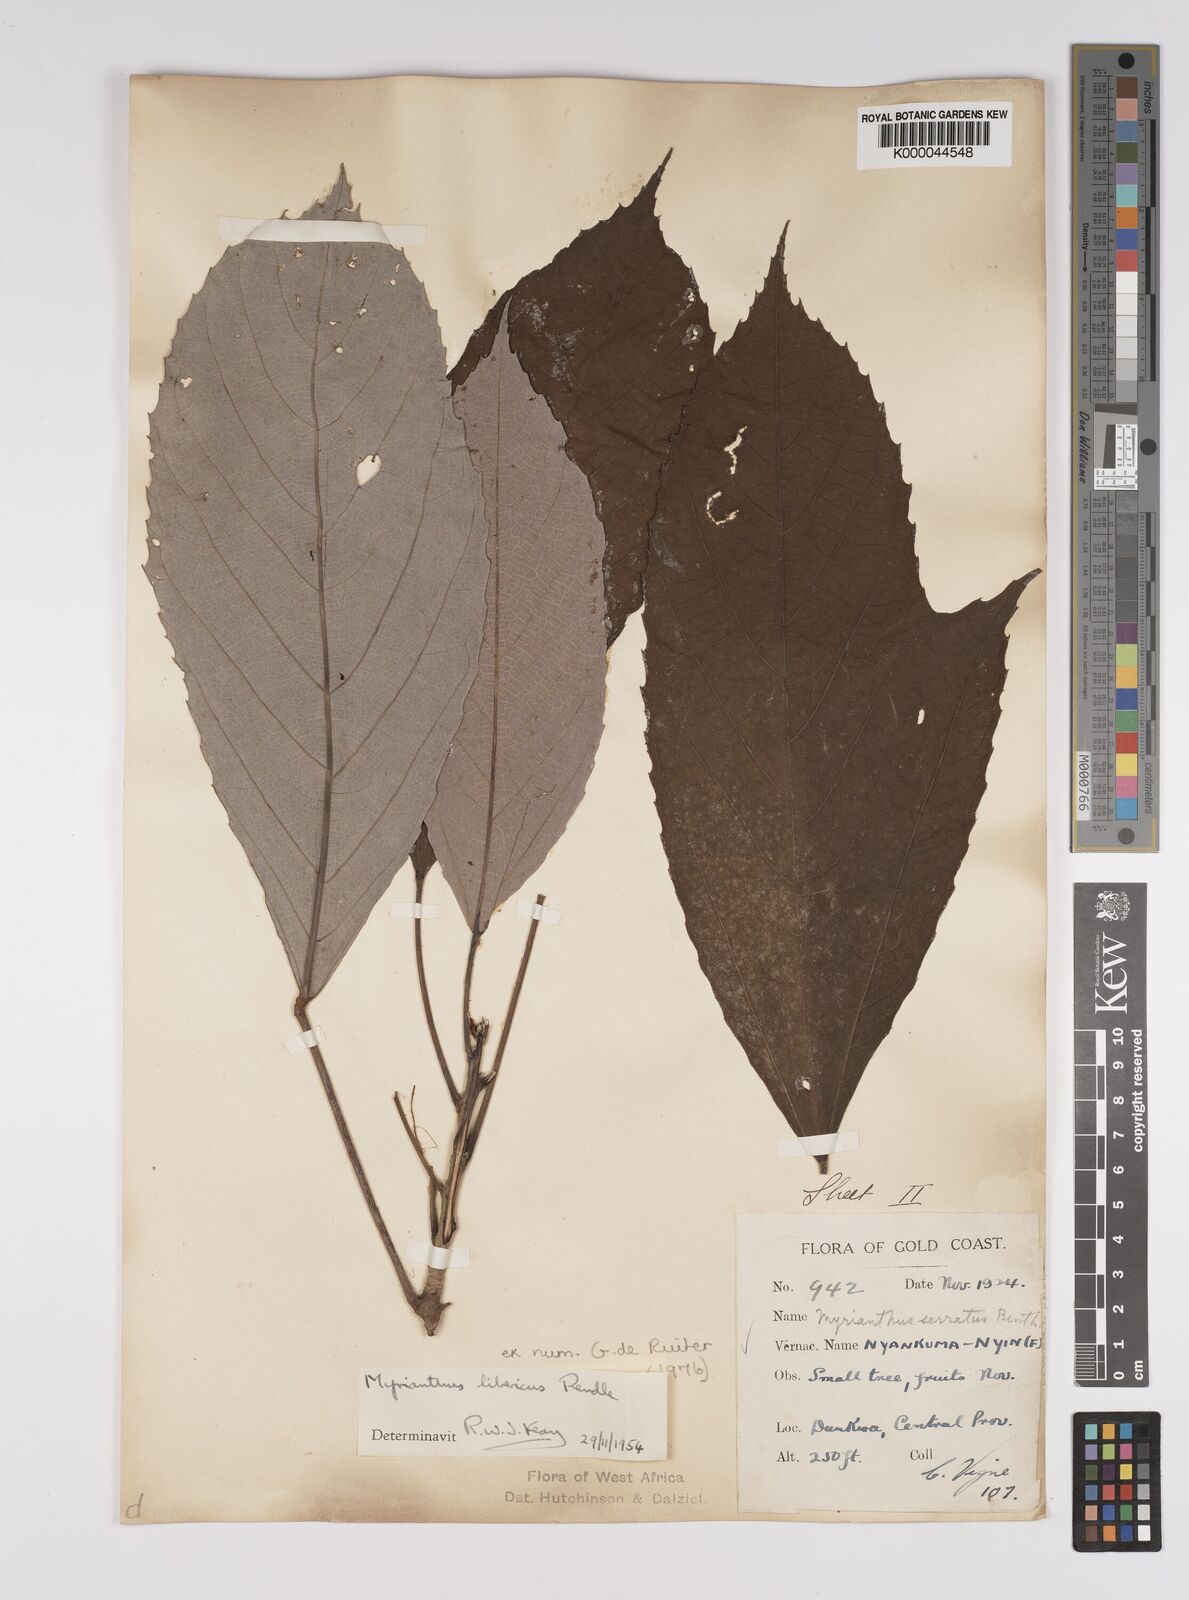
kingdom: Plantae
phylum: Tracheophyta
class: Magnoliopsida
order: Rosales
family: Urticaceae
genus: Myrianthus
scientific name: Myrianthus libericus
